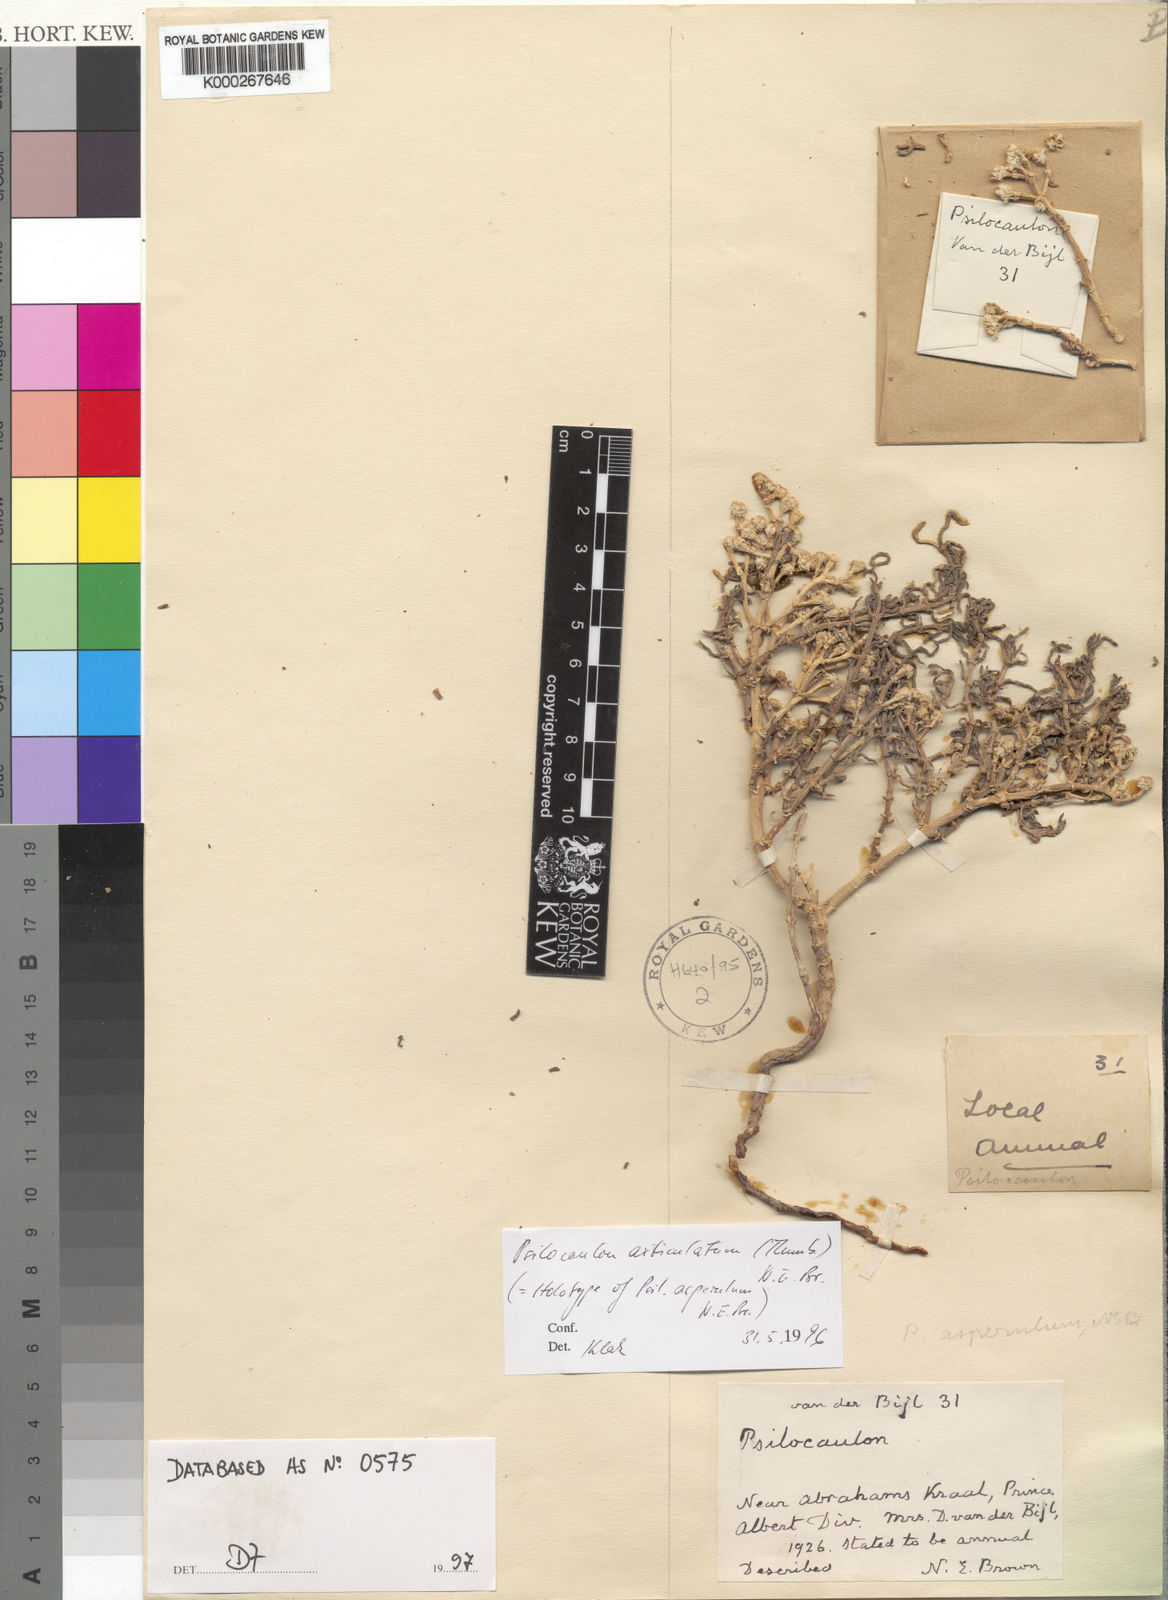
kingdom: Plantae
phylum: Tracheophyta
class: Magnoliopsida
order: Caryophyllales
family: Aizoaceae
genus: Mesembryanthemum
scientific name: Mesembryanthemum articulatum
